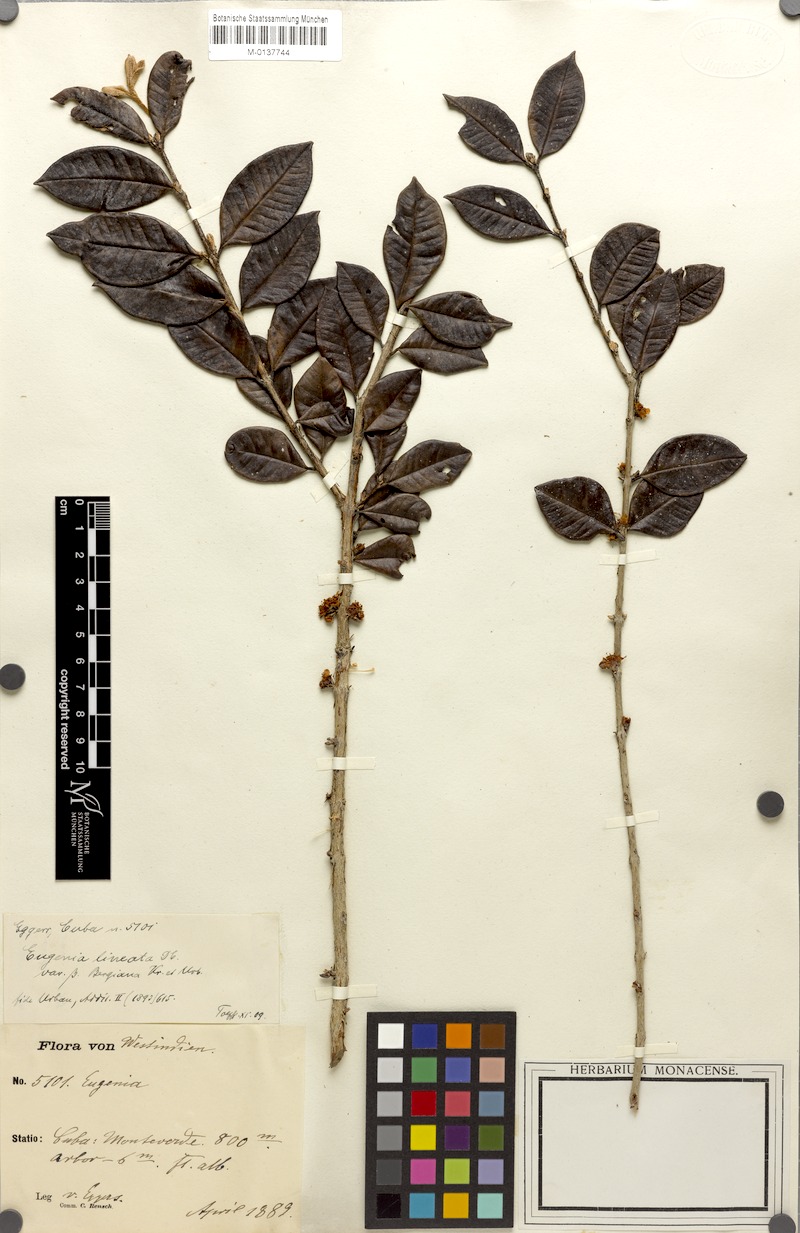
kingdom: Plantae
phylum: Tracheophyta
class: Magnoliopsida
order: Myrtales
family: Myrtaceae
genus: Eugenia
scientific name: Eugenia lineata
